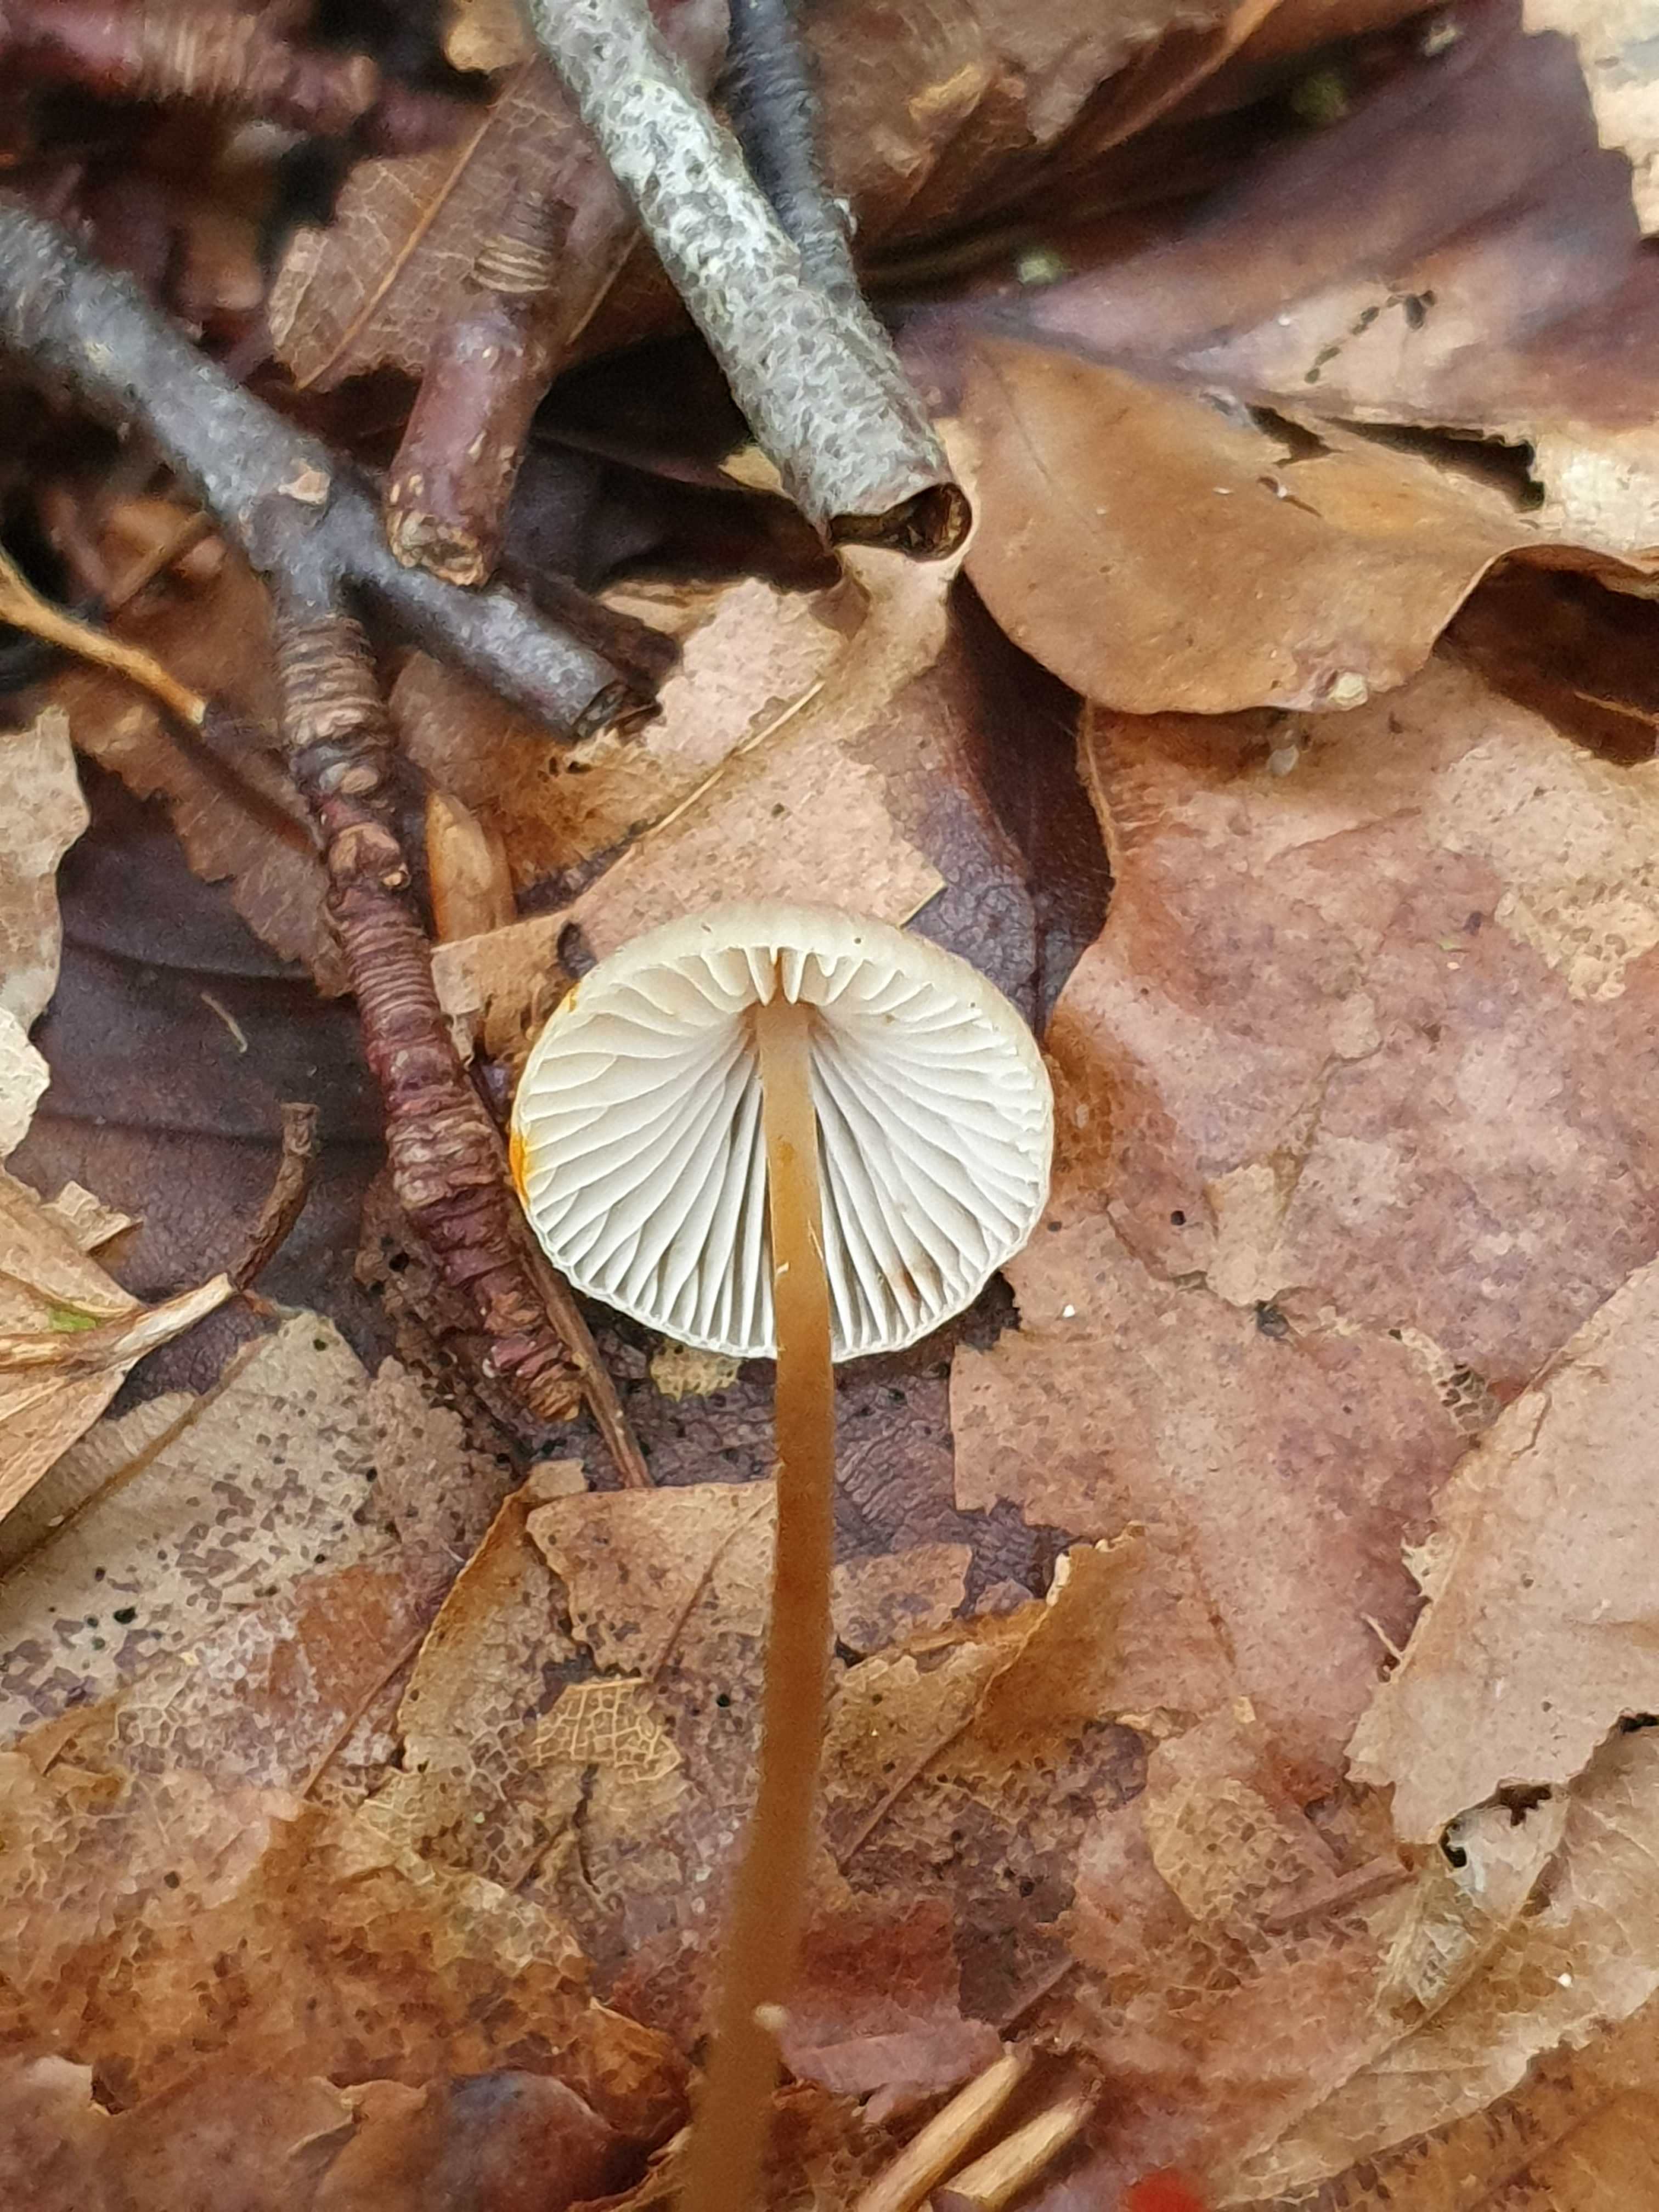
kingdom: Fungi
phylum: Basidiomycota
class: Agaricomycetes
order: Agaricales
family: Mycenaceae
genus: Mycena
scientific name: Mycena crocata
